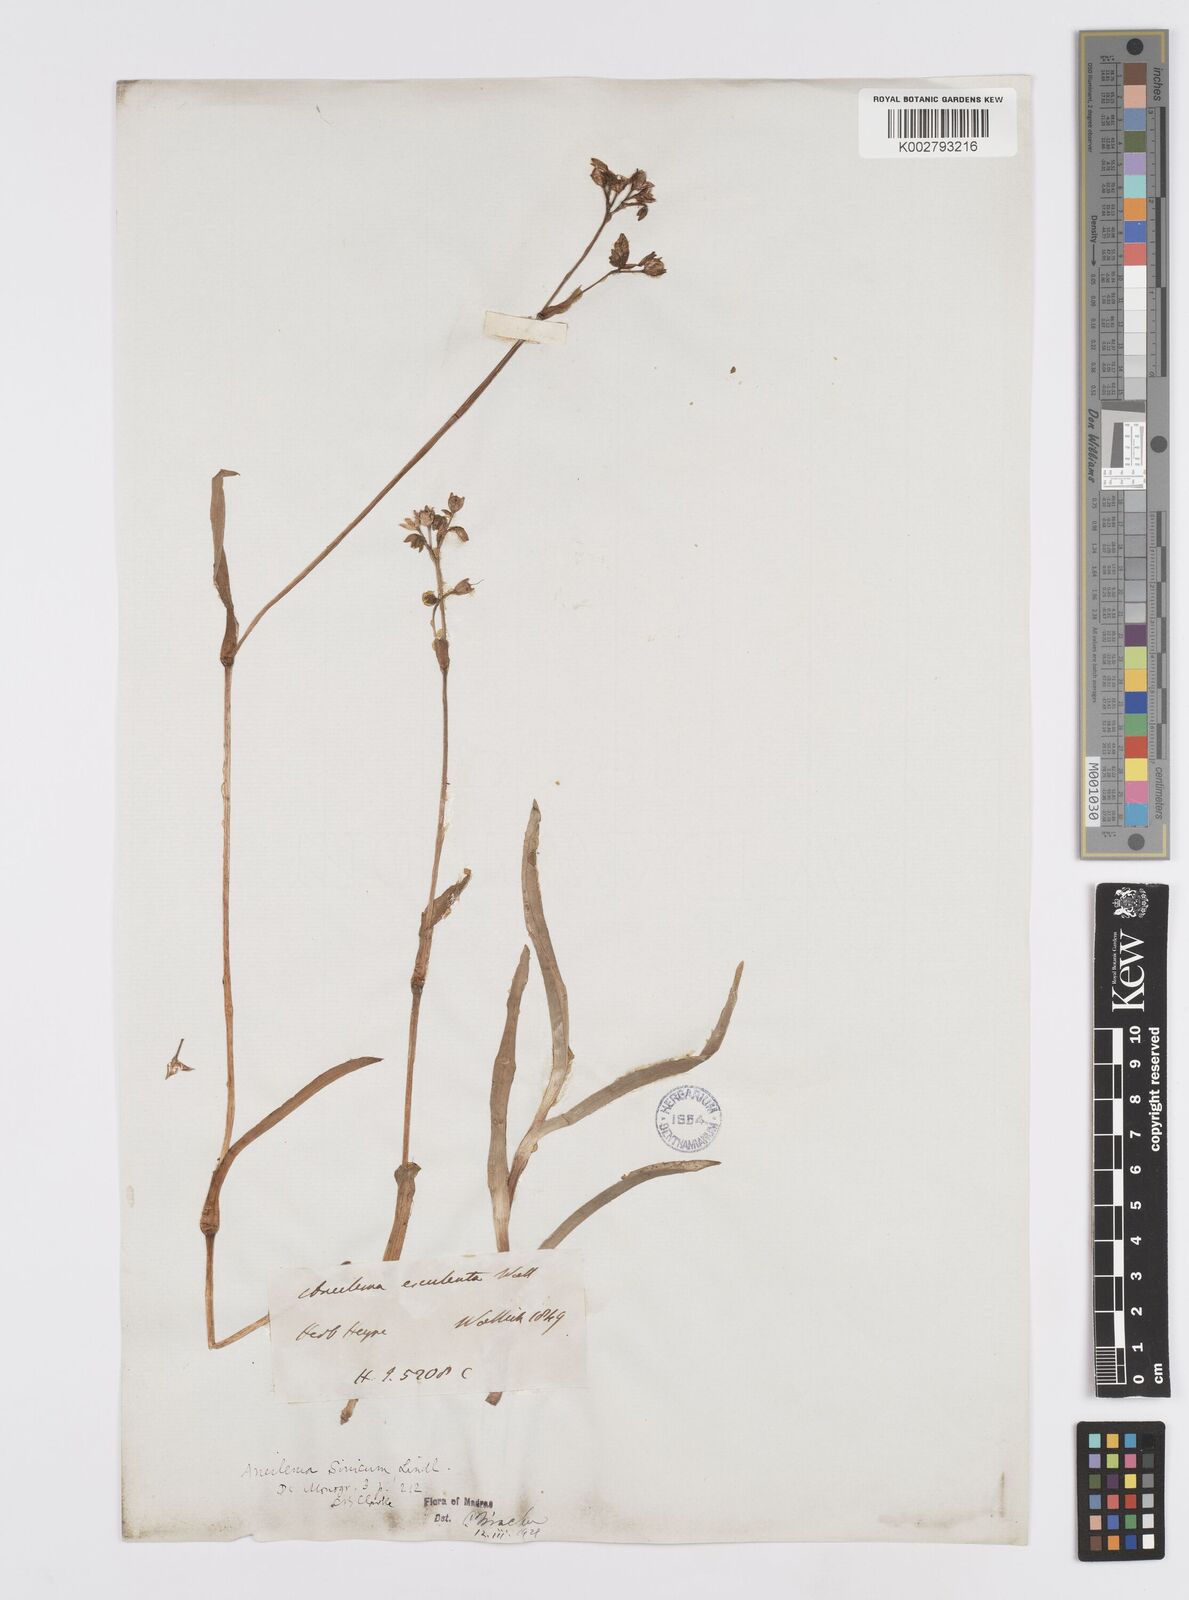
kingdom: Plantae
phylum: Tracheophyta
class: Liliopsida
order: Commelinales
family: Commelinaceae
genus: Murdannia
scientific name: Murdannia simplex
